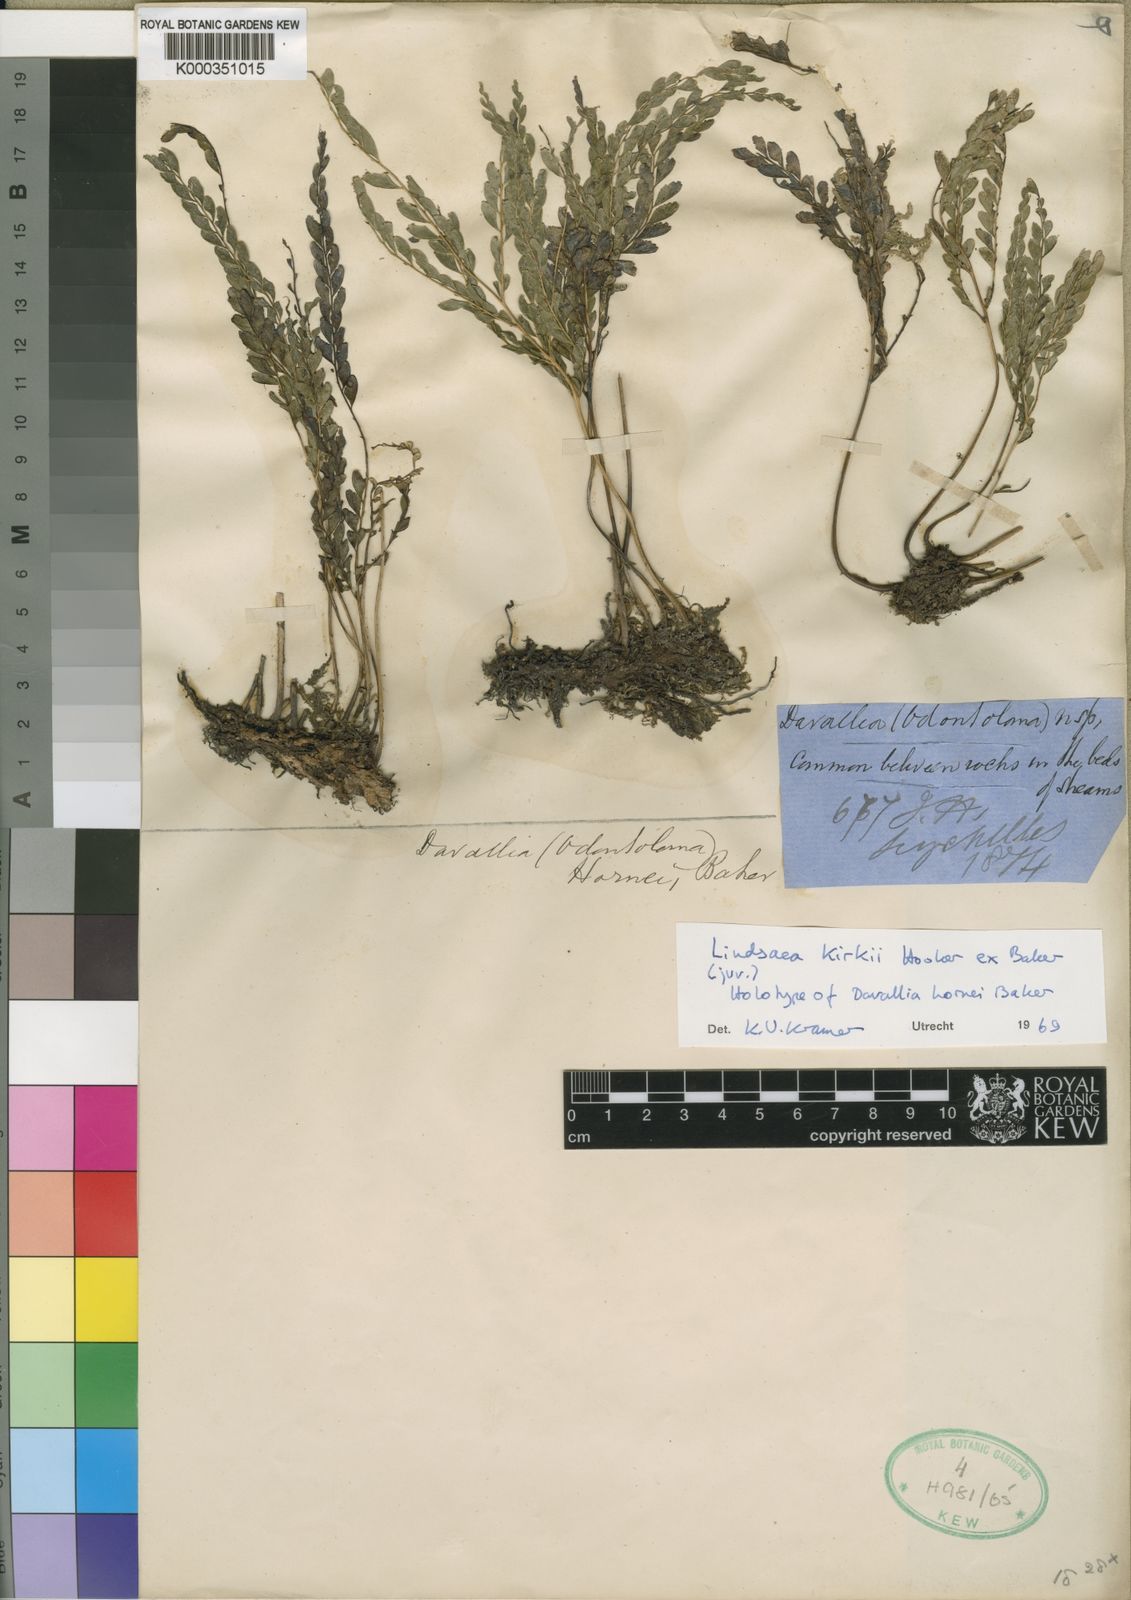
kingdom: Plantae
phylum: Tracheophyta
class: Polypodiopsida
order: Polypodiales
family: Lindsaeaceae
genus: Nesolindsaea
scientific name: Nesolindsaea kirkii
